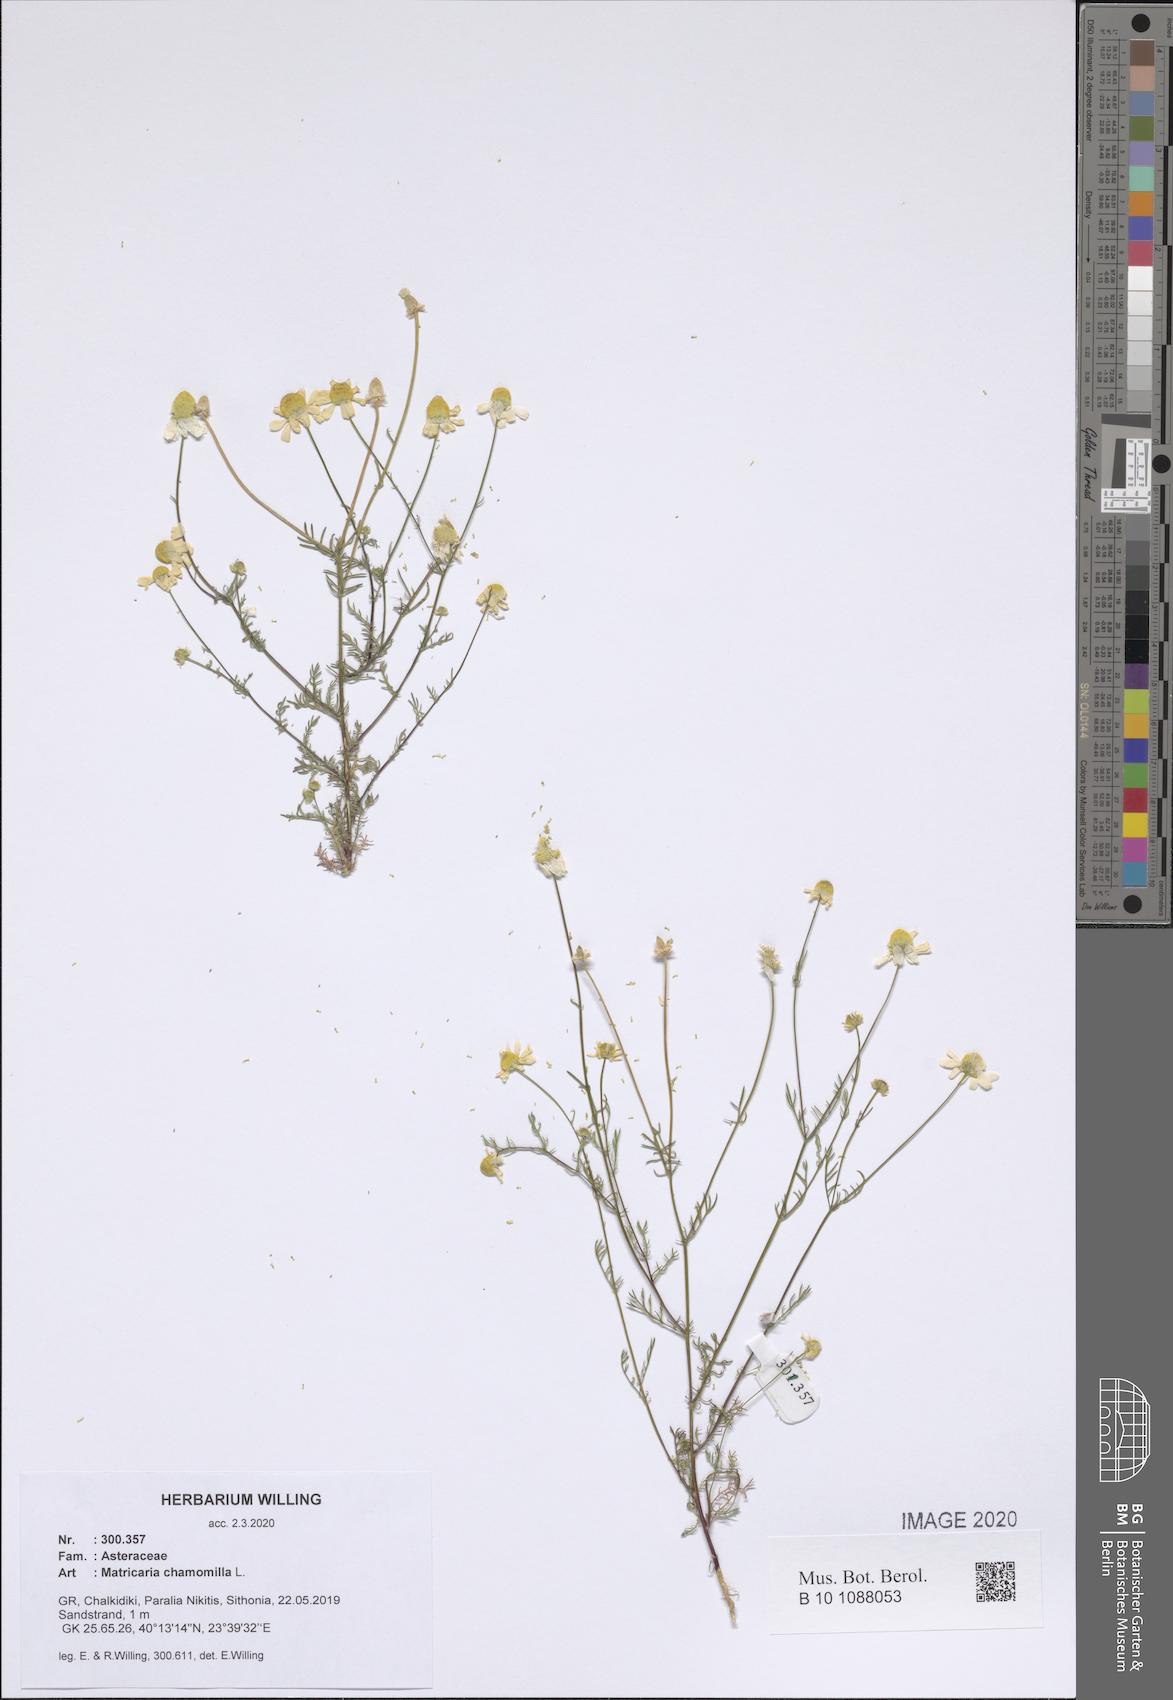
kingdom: Plantae
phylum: Tracheophyta
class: Magnoliopsida
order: Asterales
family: Asteraceae
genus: Matricaria
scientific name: Matricaria chamomilla
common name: Scented mayweed
